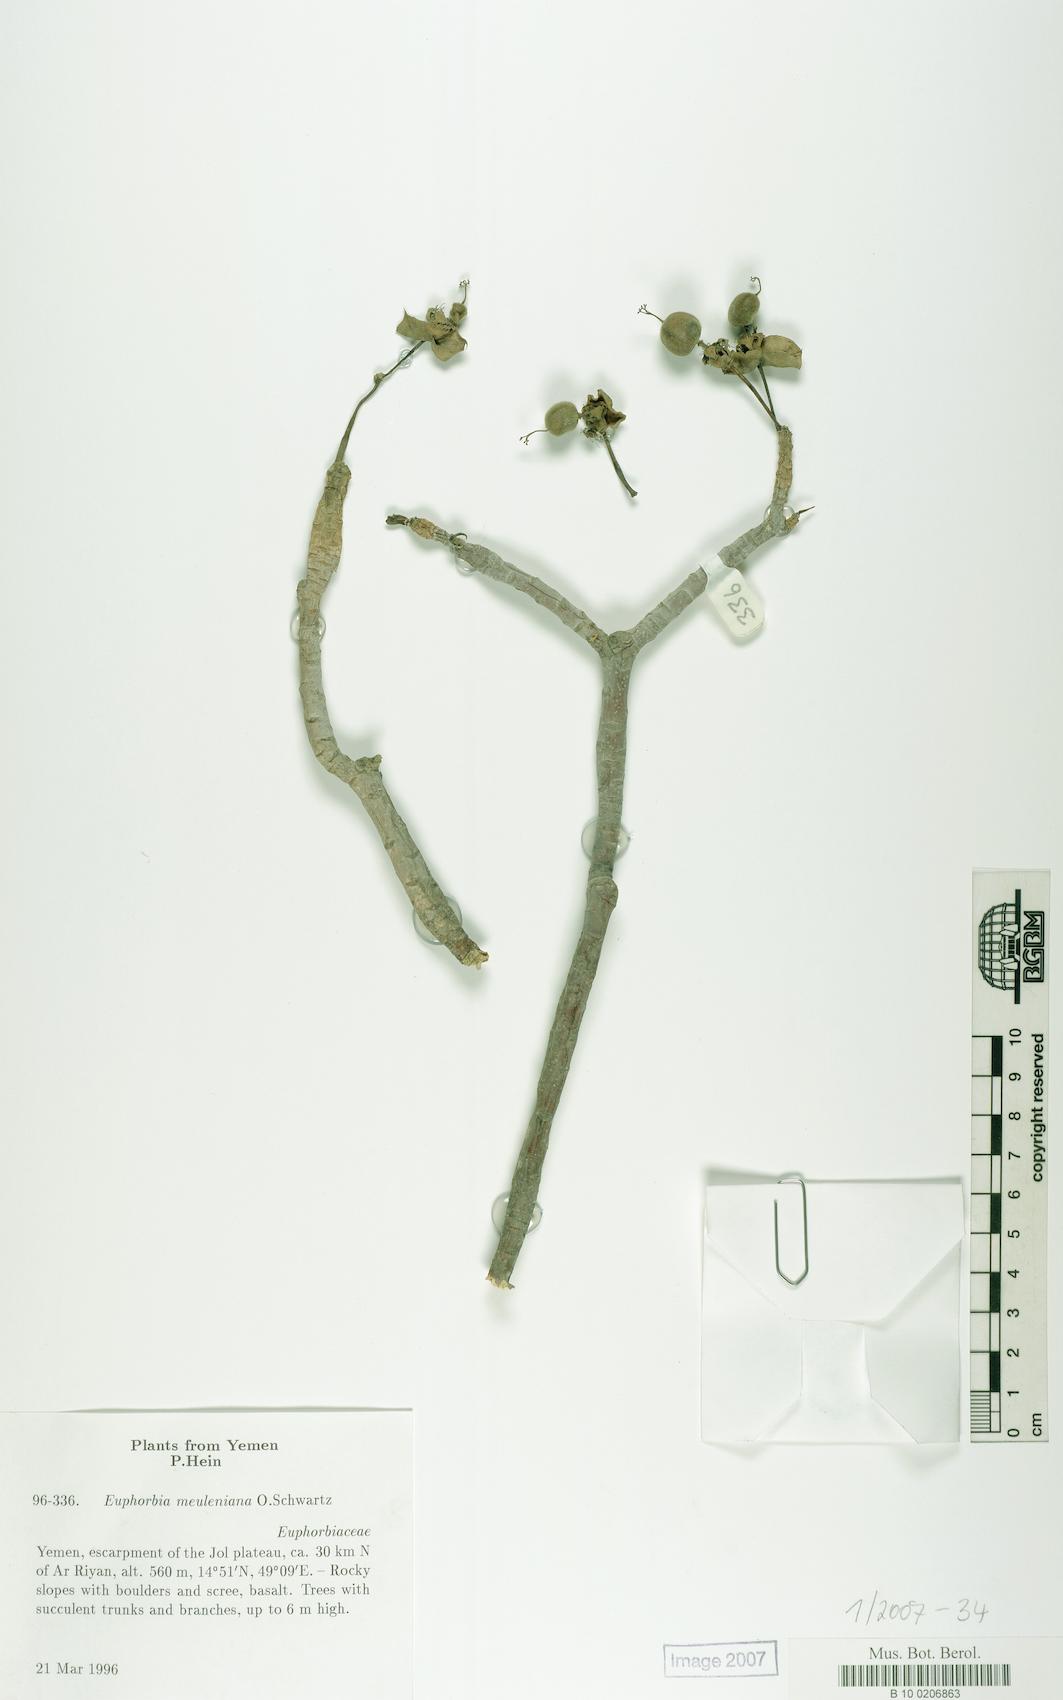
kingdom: Plantae
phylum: Tracheophyta
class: Magnoliopsida
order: Malpighiales
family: Euphorbiaceae
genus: Euphorbia
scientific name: Euphorbia meuleniana
